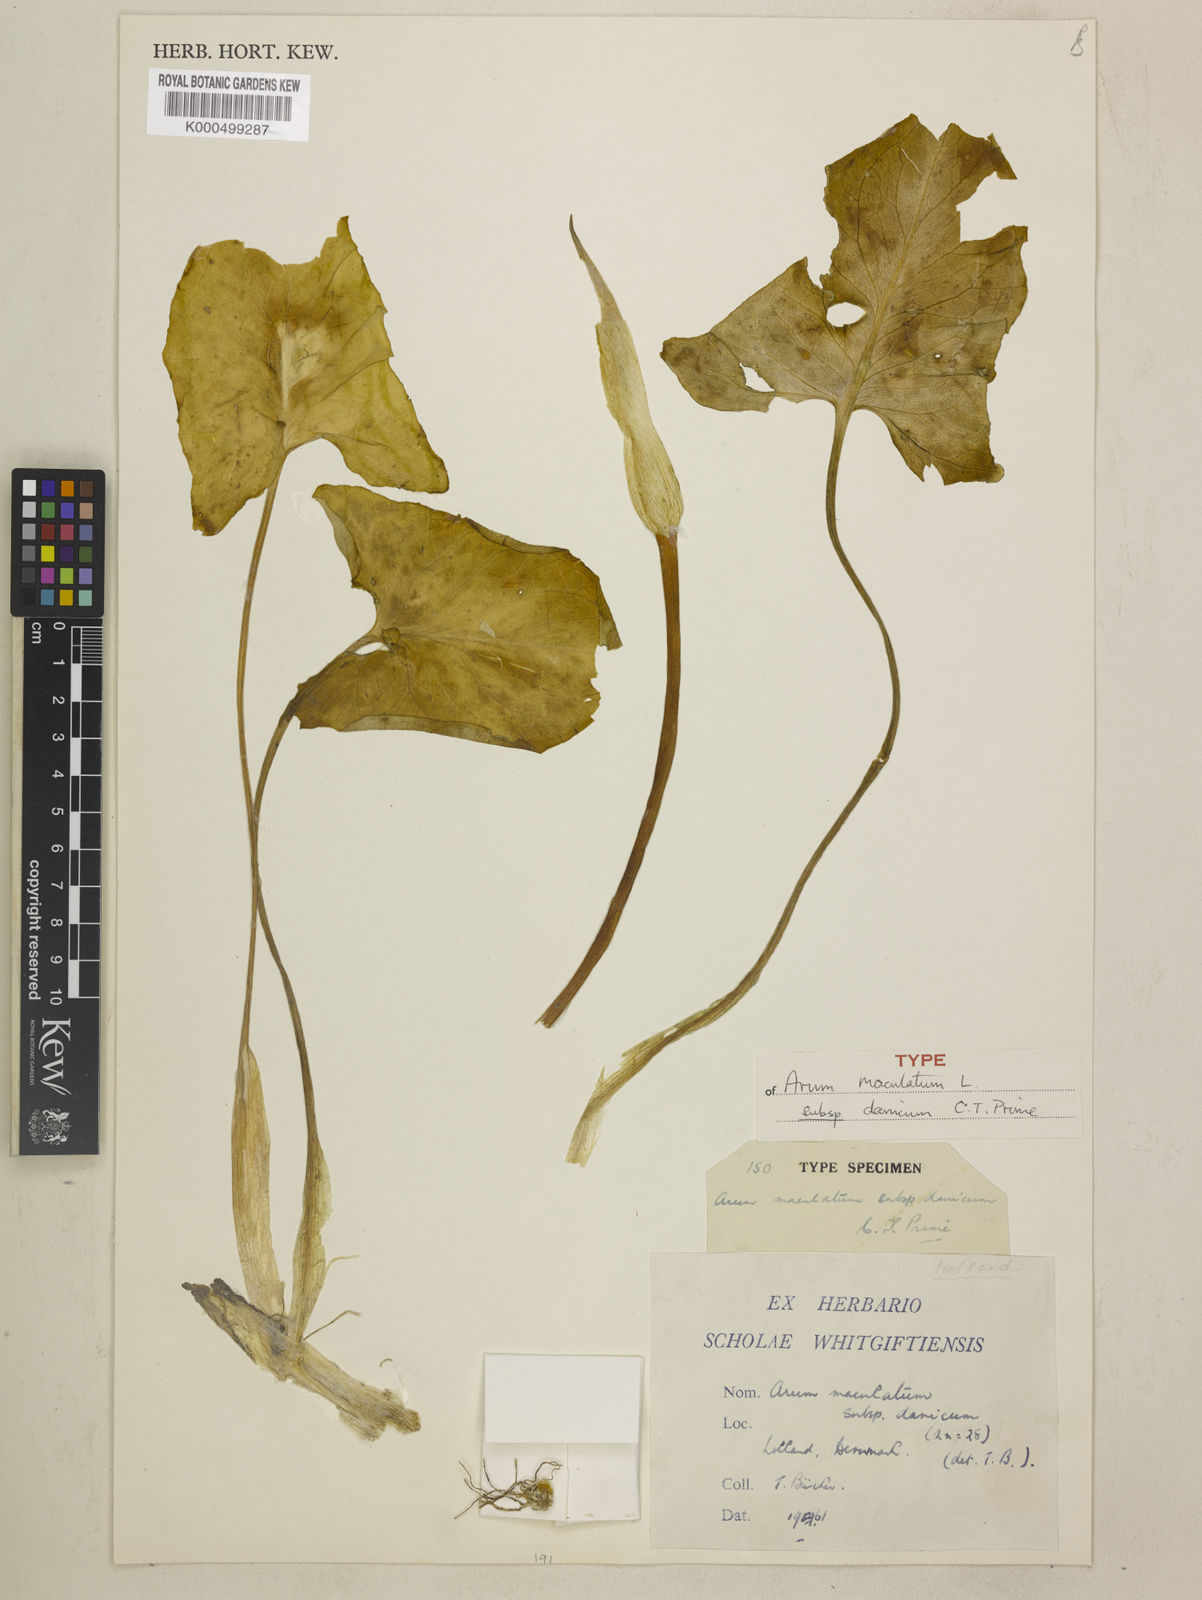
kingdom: Plantae
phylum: Tracheophyta
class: Liliopsida
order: Alismatales
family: Araceae
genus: Arum
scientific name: Arum maculatum
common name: Lords-and-ladies
